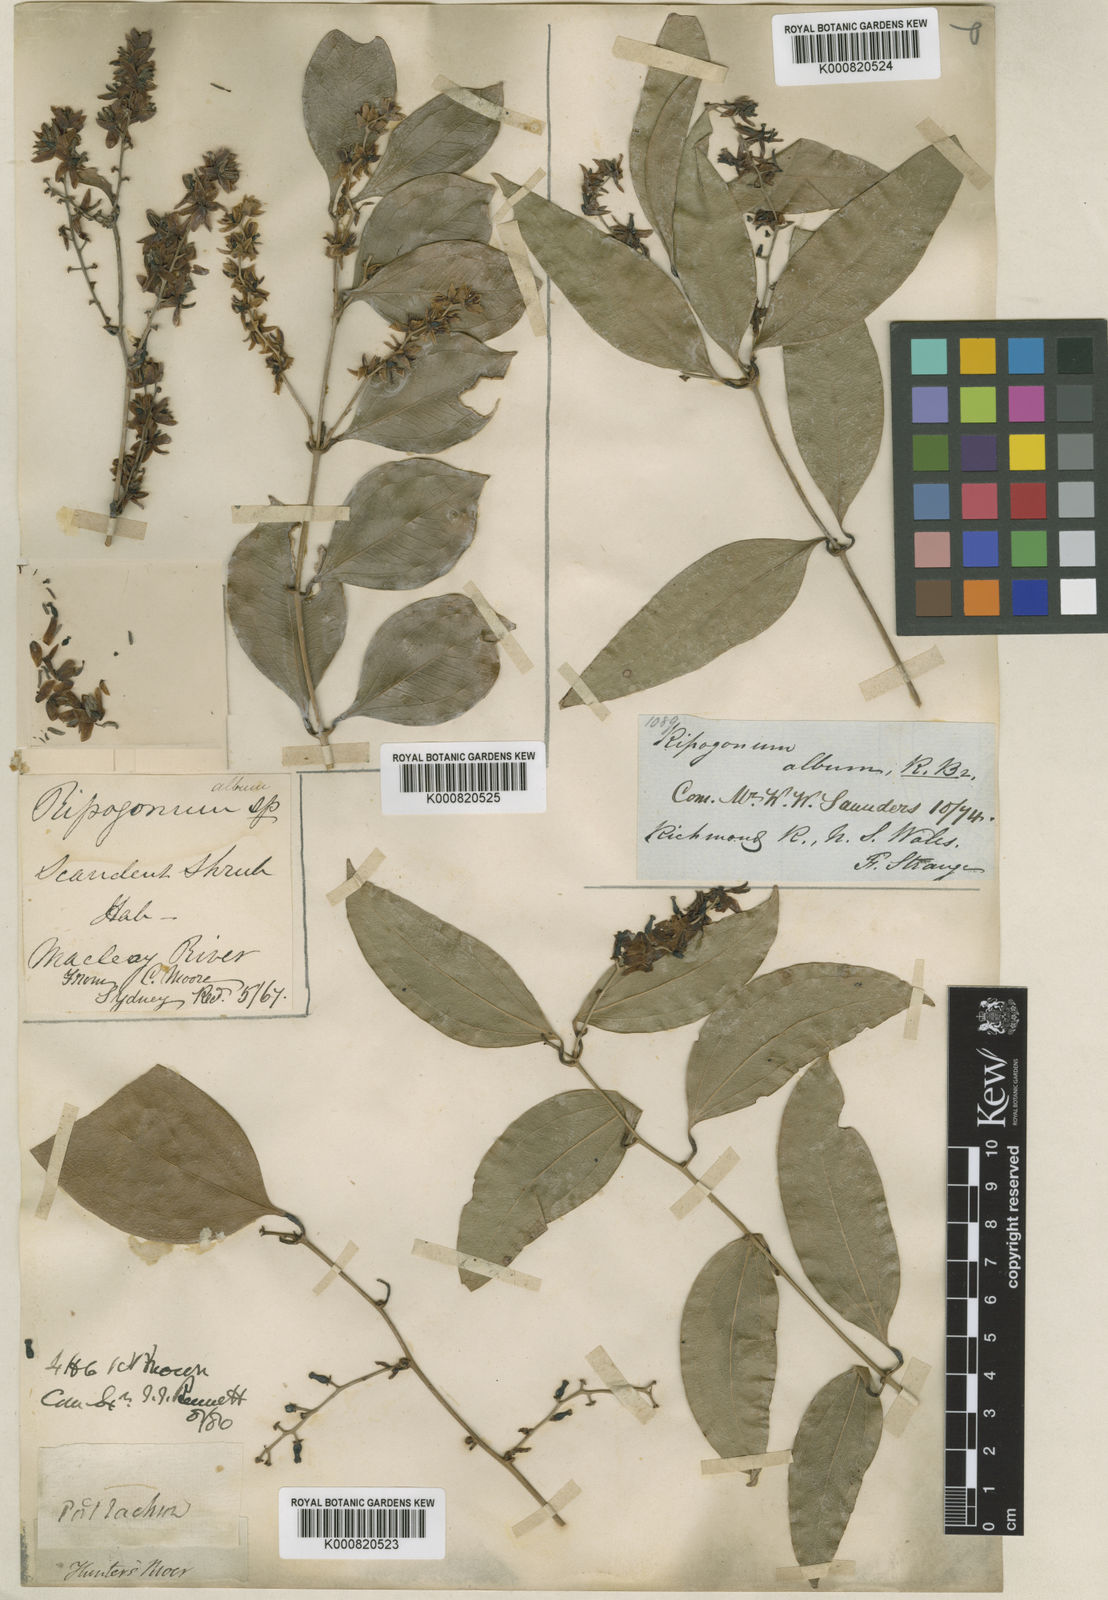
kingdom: Plantae
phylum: Tracheophyta
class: Liliopsida
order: Liliales
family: Ripogonaceae
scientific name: Ripogonaceae
